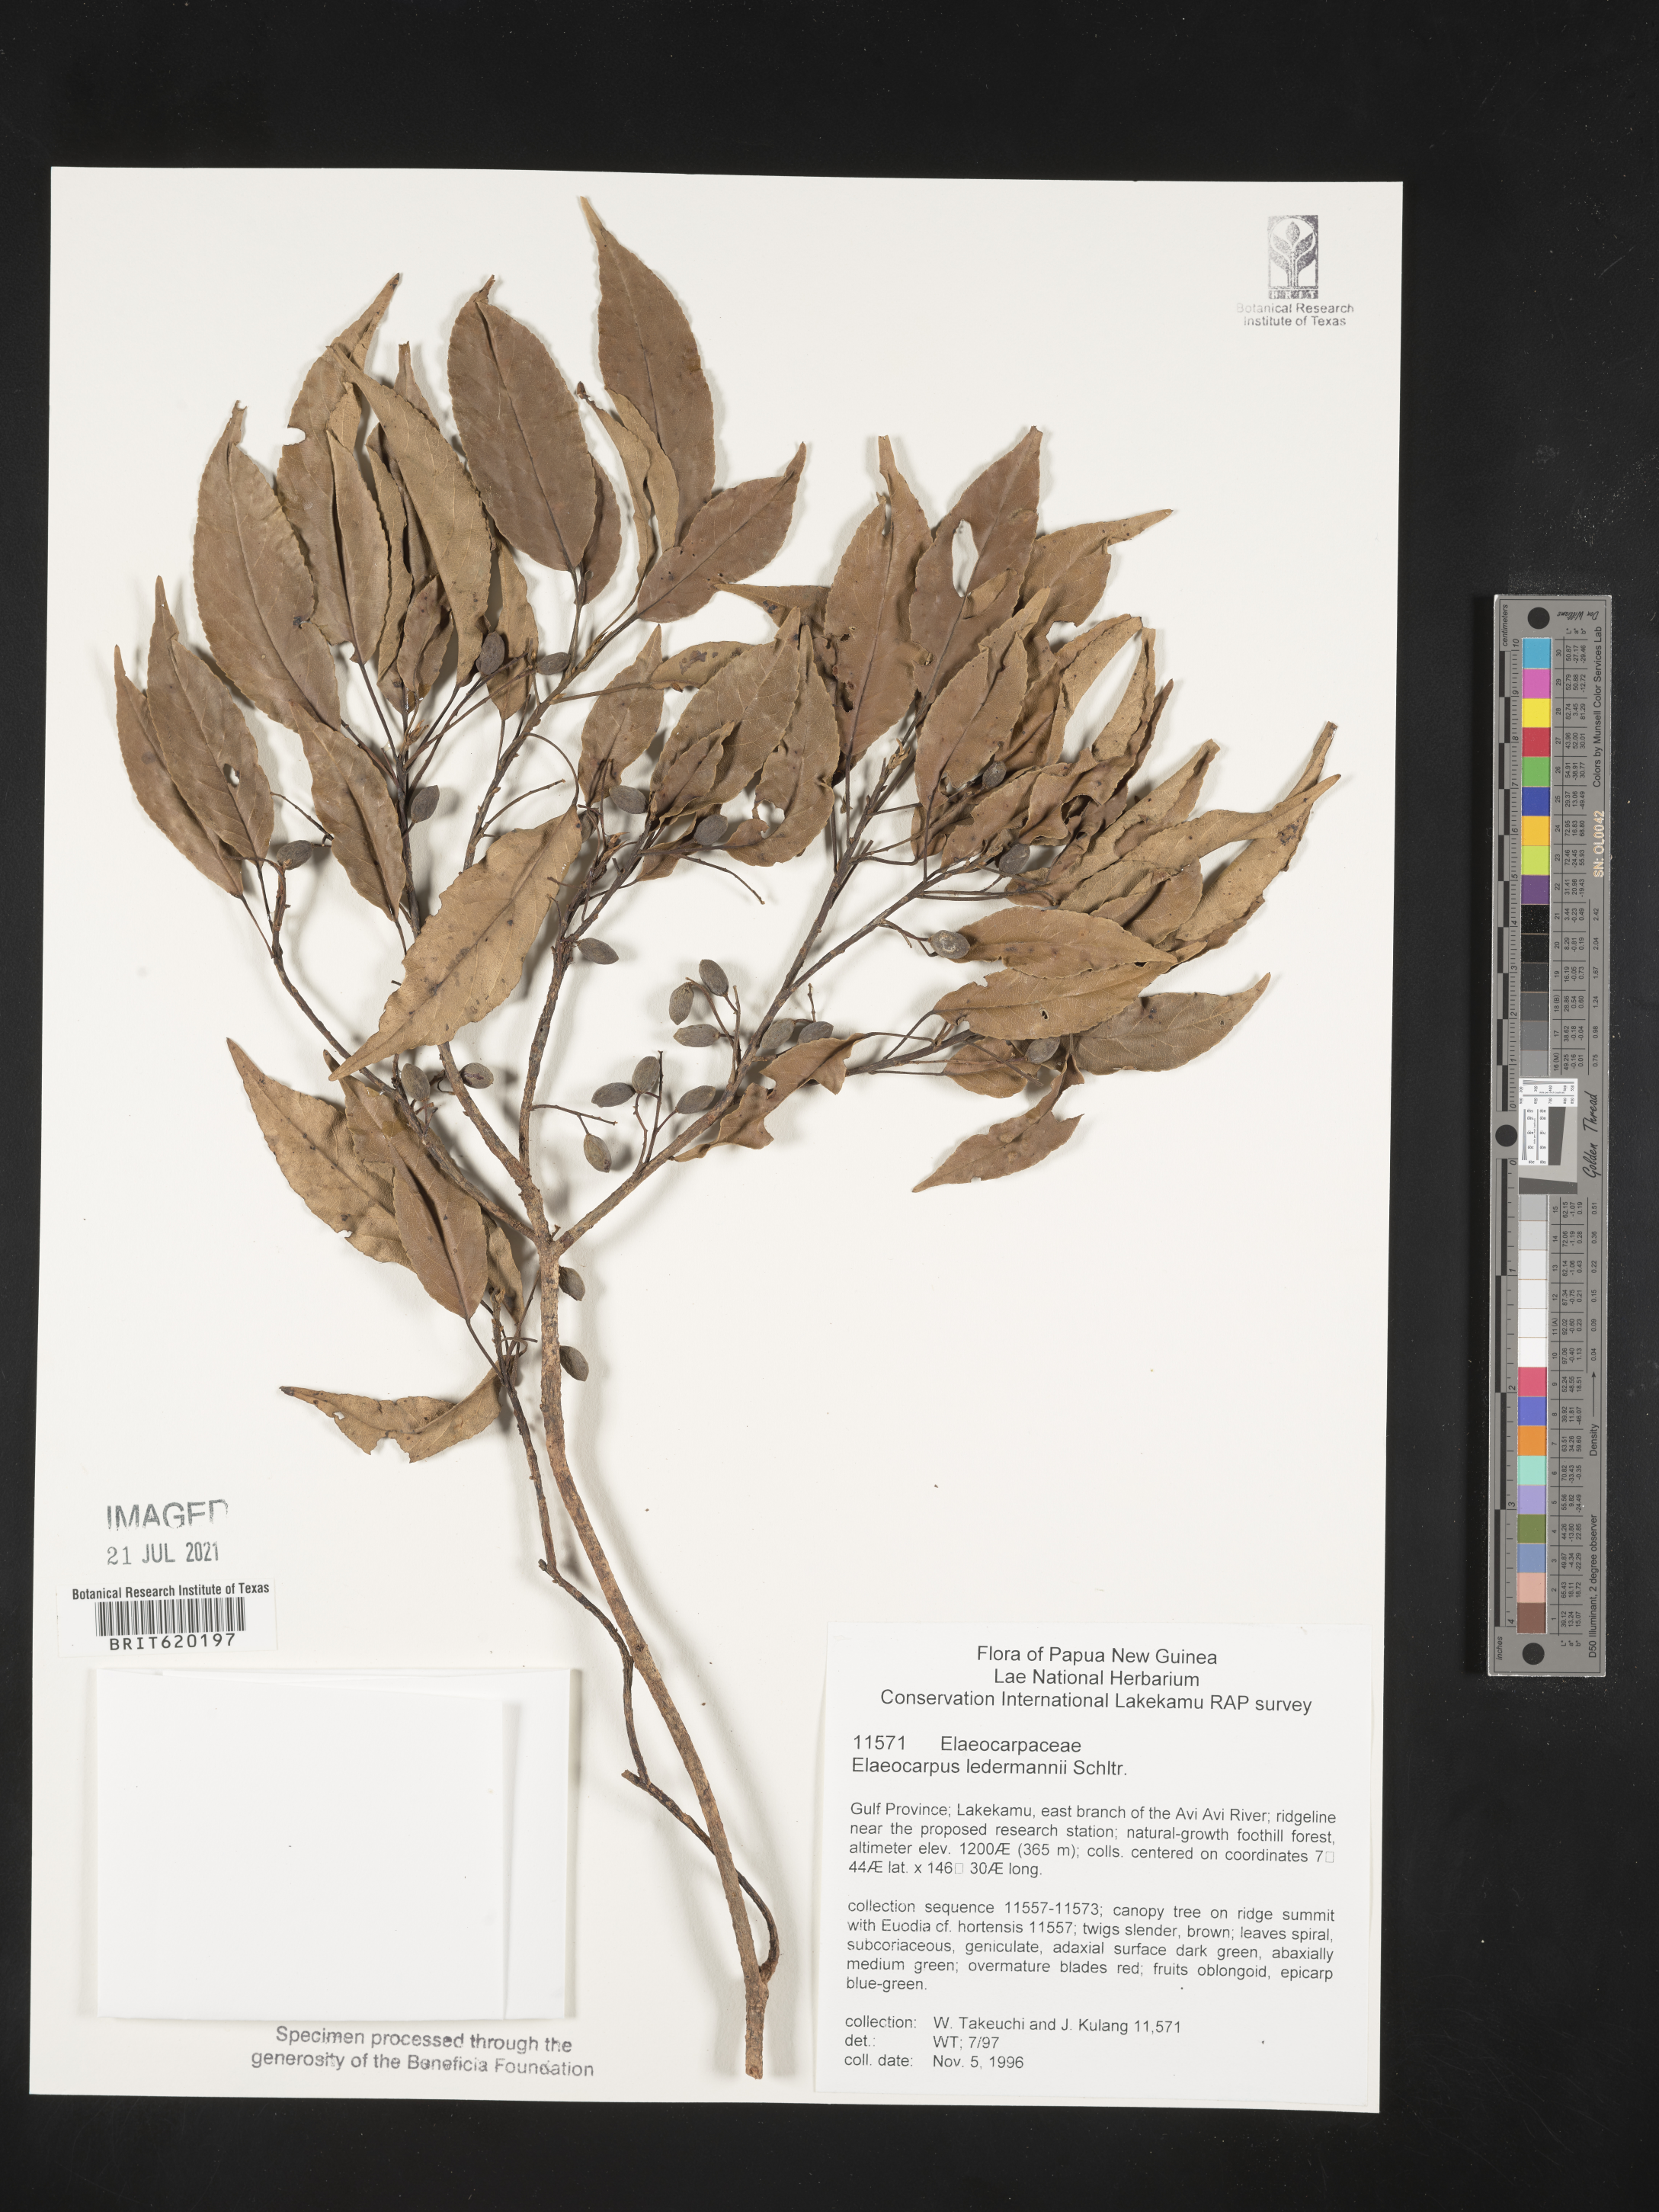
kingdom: Plantae
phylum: Tracheophyta
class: Magnoliopsida
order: Oxalidales
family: Elaeocarpaceae
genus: Elaeocarpus
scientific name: Elaeocarpus ledermannii
